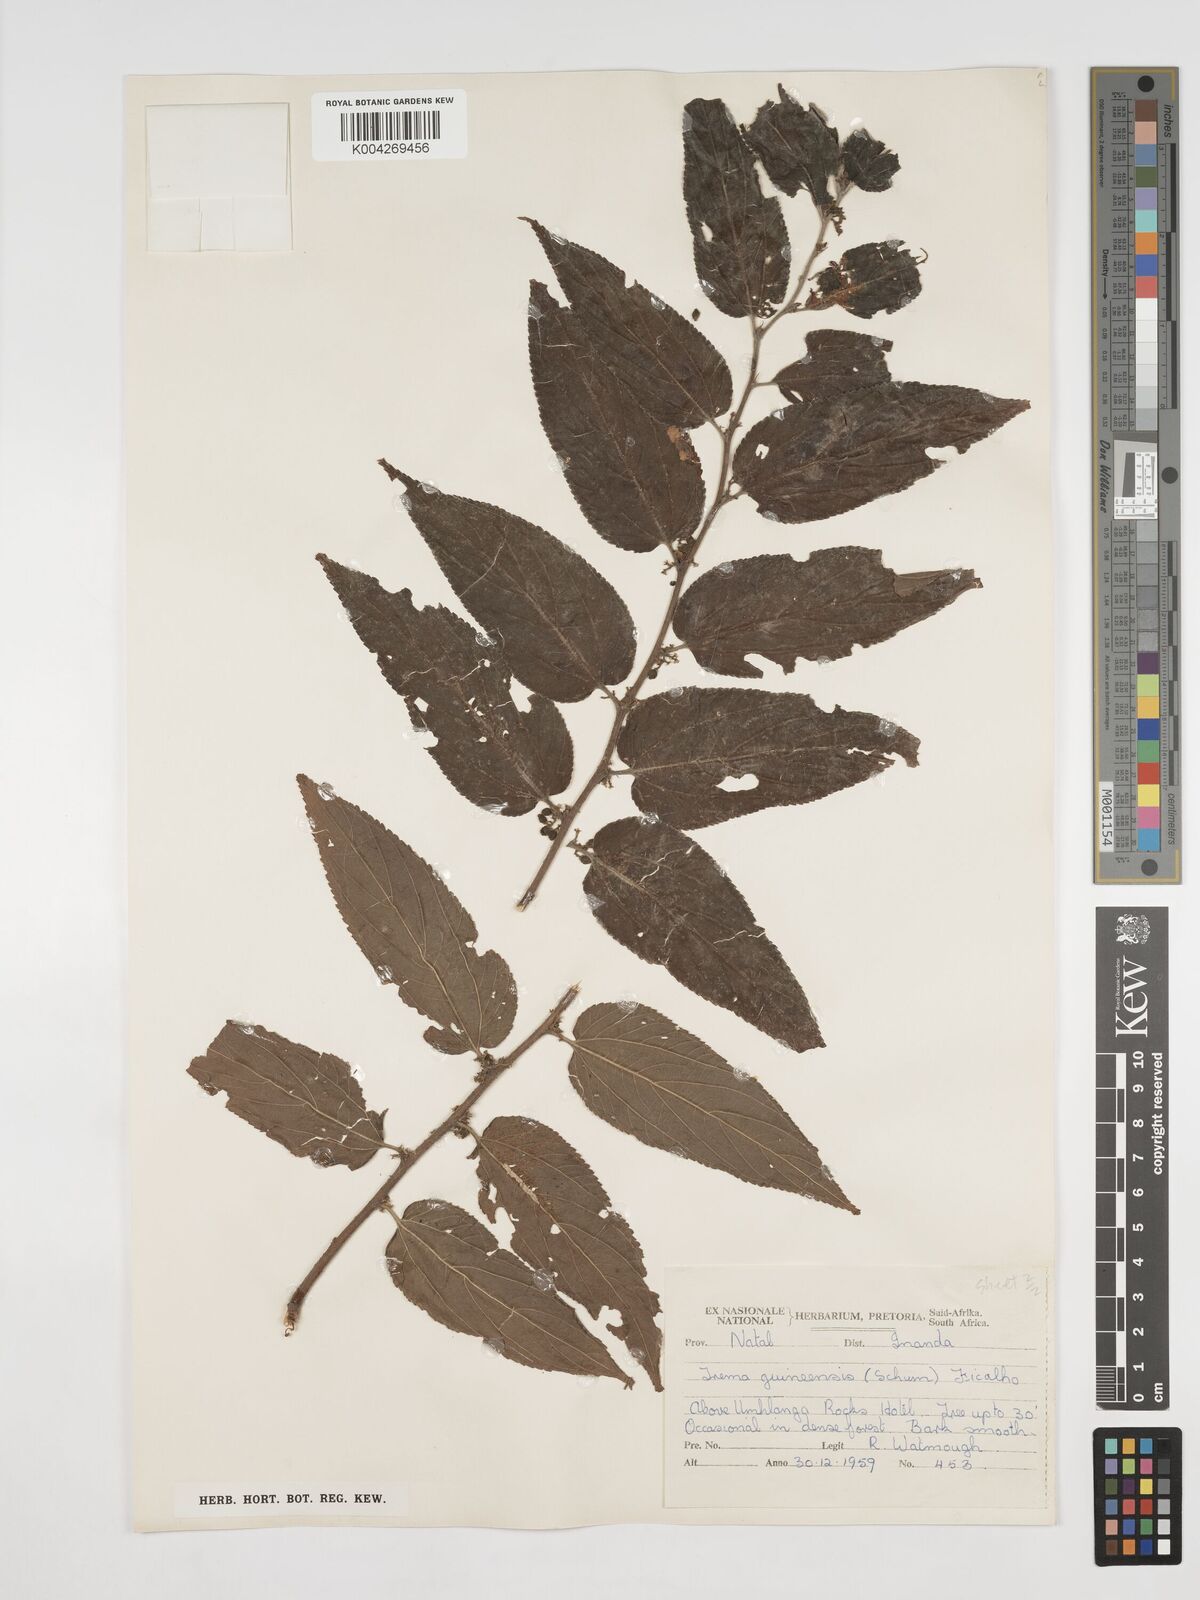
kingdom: Plantae
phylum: Tracheophyta
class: Magnoliopsida
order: Rosales
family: Cannabaceae
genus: Trema
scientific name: Trema orientale
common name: Indian charcoal tree
